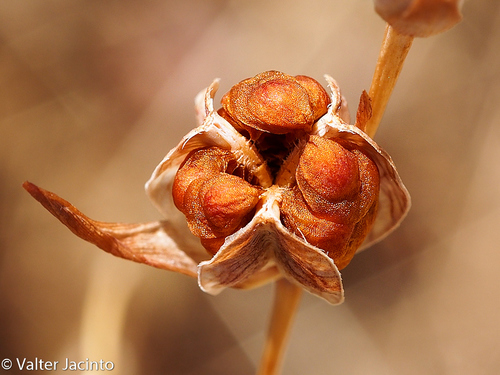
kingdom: Plantae
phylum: Tracheophyta
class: Liliopsida
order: Asparagales
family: Iridaceae
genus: Gladiolus
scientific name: Gladiolus illyricus
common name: Wild gladiolus
